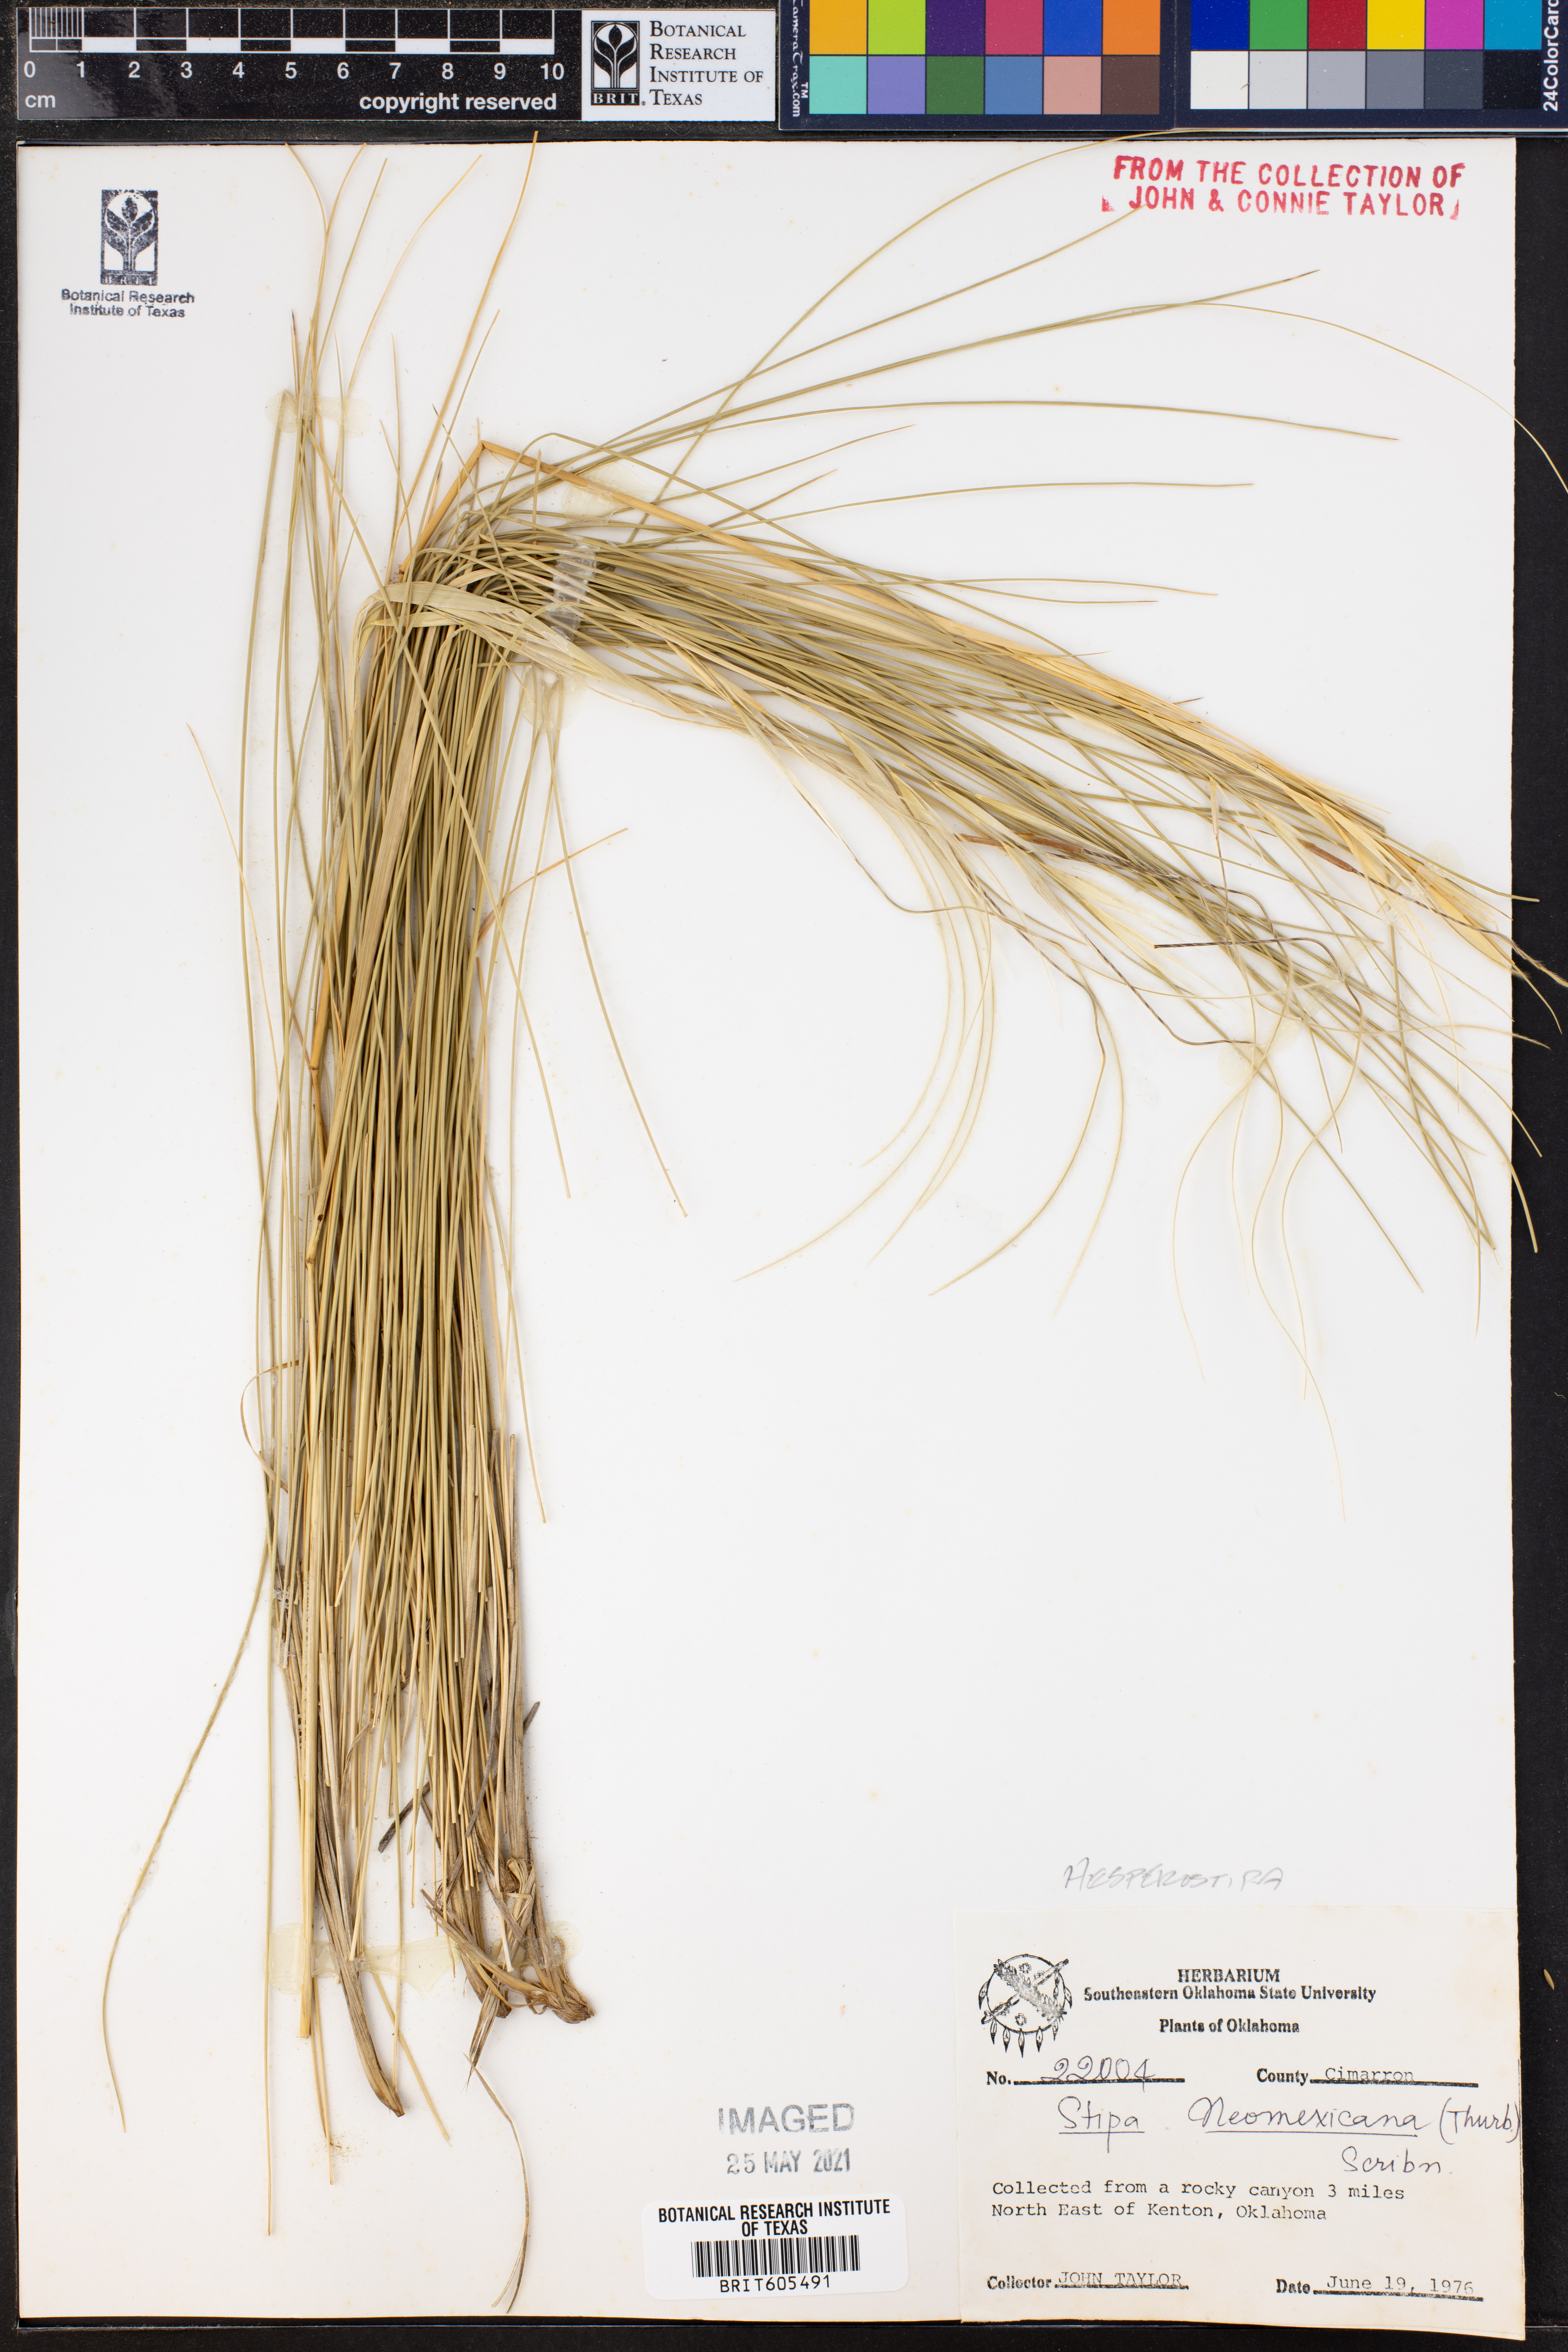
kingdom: Plantae
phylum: Tracheophyta
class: Liliopsida
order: Poales
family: Poaceae
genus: Hesperostipa
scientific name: Hesperostipa neomexicana
